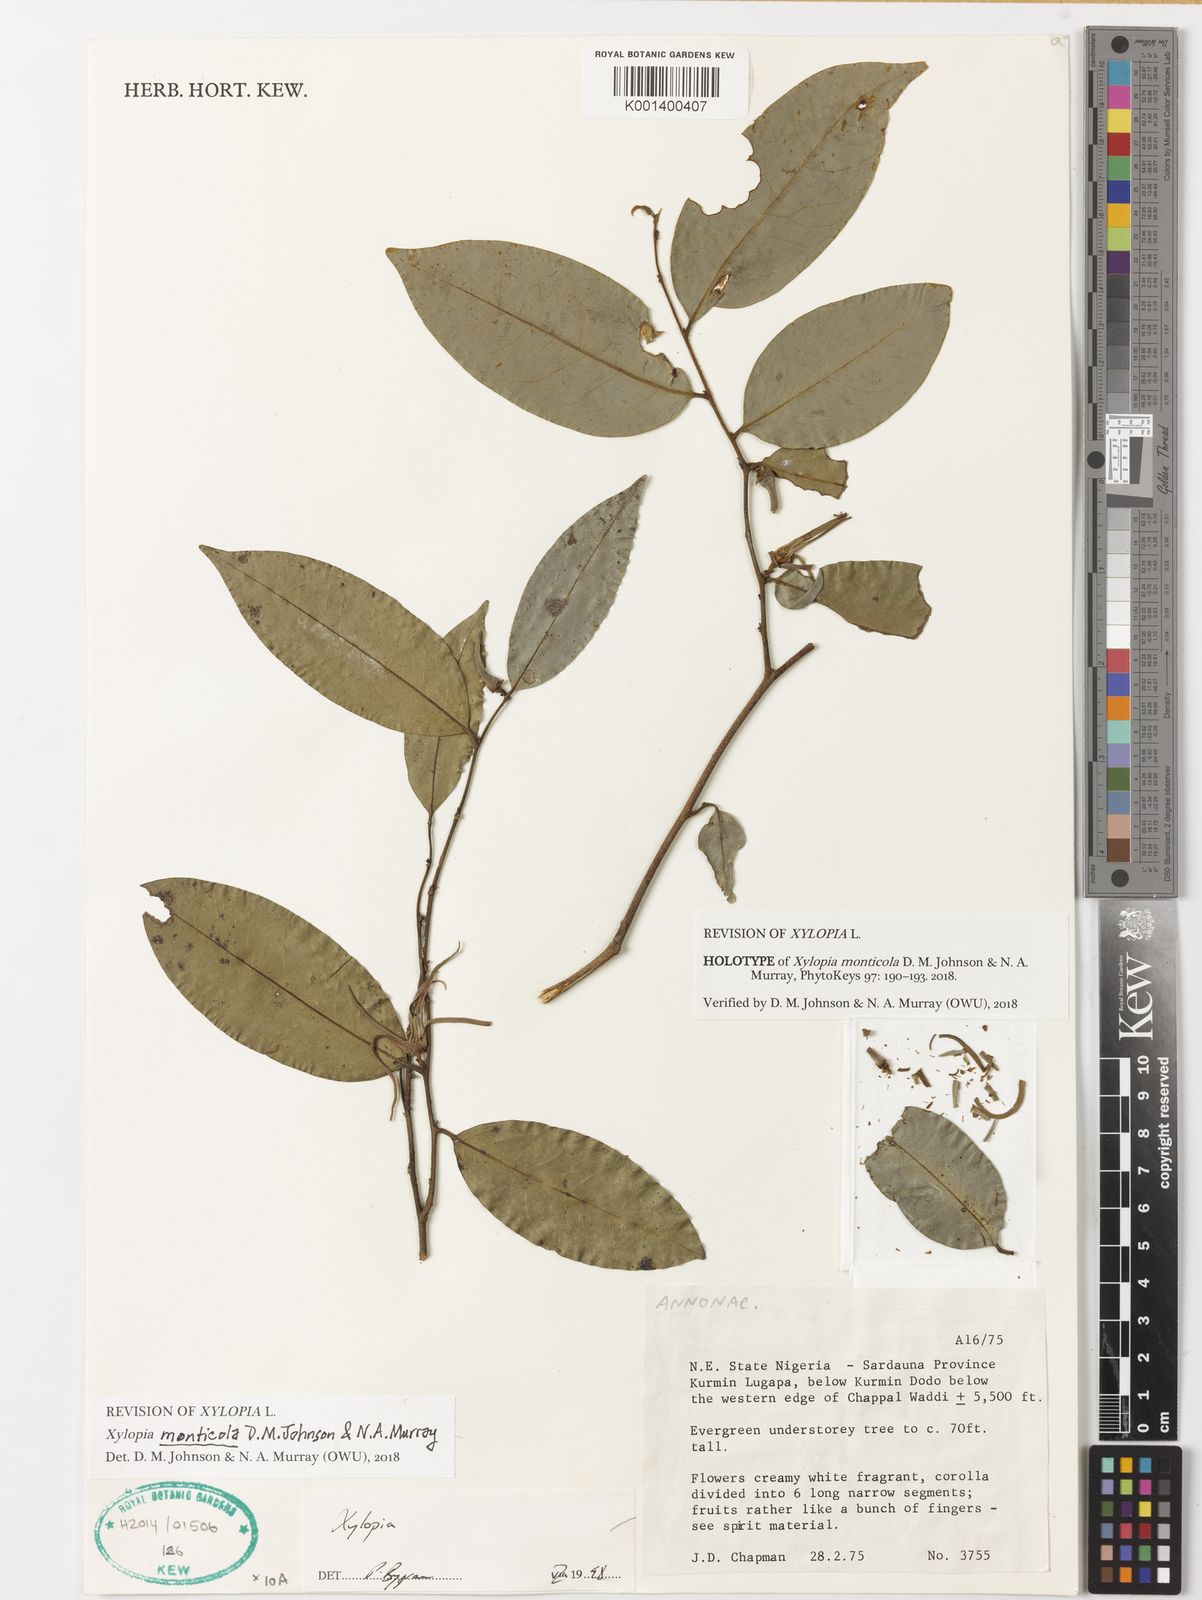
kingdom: Plantae
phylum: Tracheophyta
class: Magnoliopsida
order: Magnoliales
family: Annonaceae
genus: Xylopia
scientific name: Xylopia monticola
